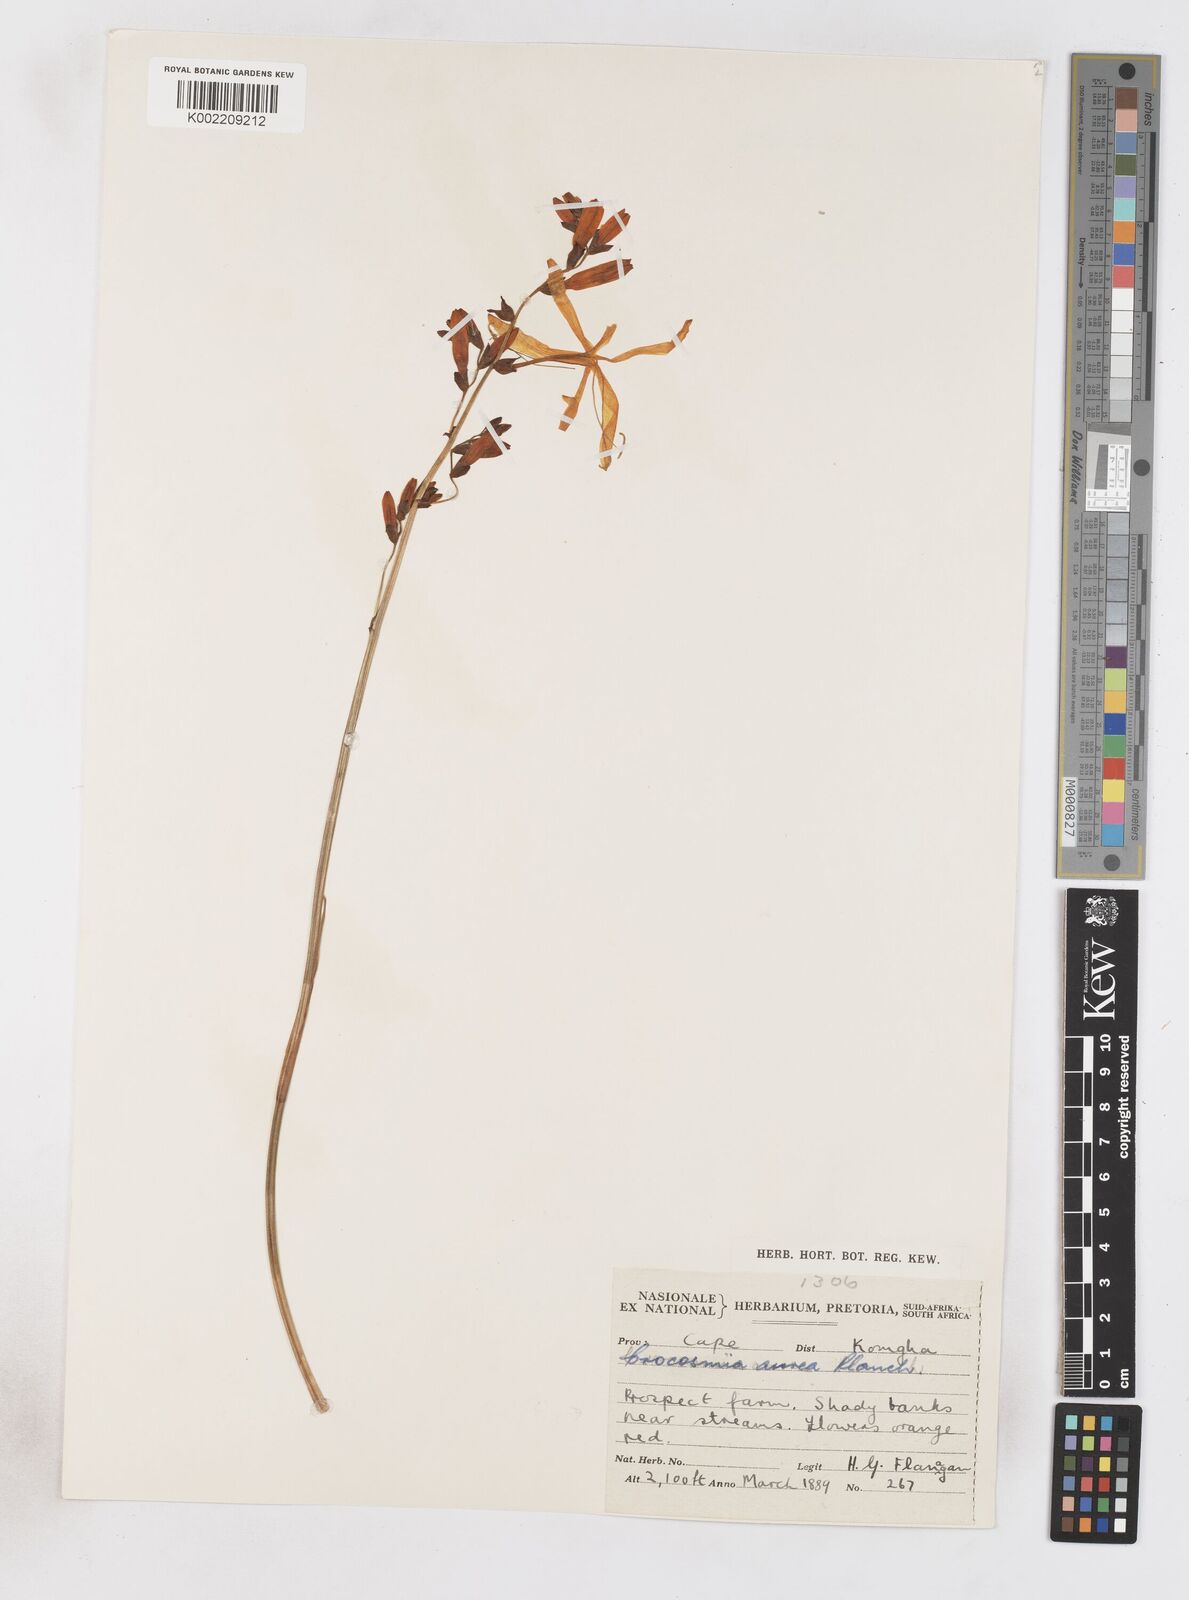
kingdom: Plantae
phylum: Tracheophyta
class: Liliopsida
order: Asparagales
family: Iridaceae
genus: Crocosmia
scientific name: Crocosmia aurea
